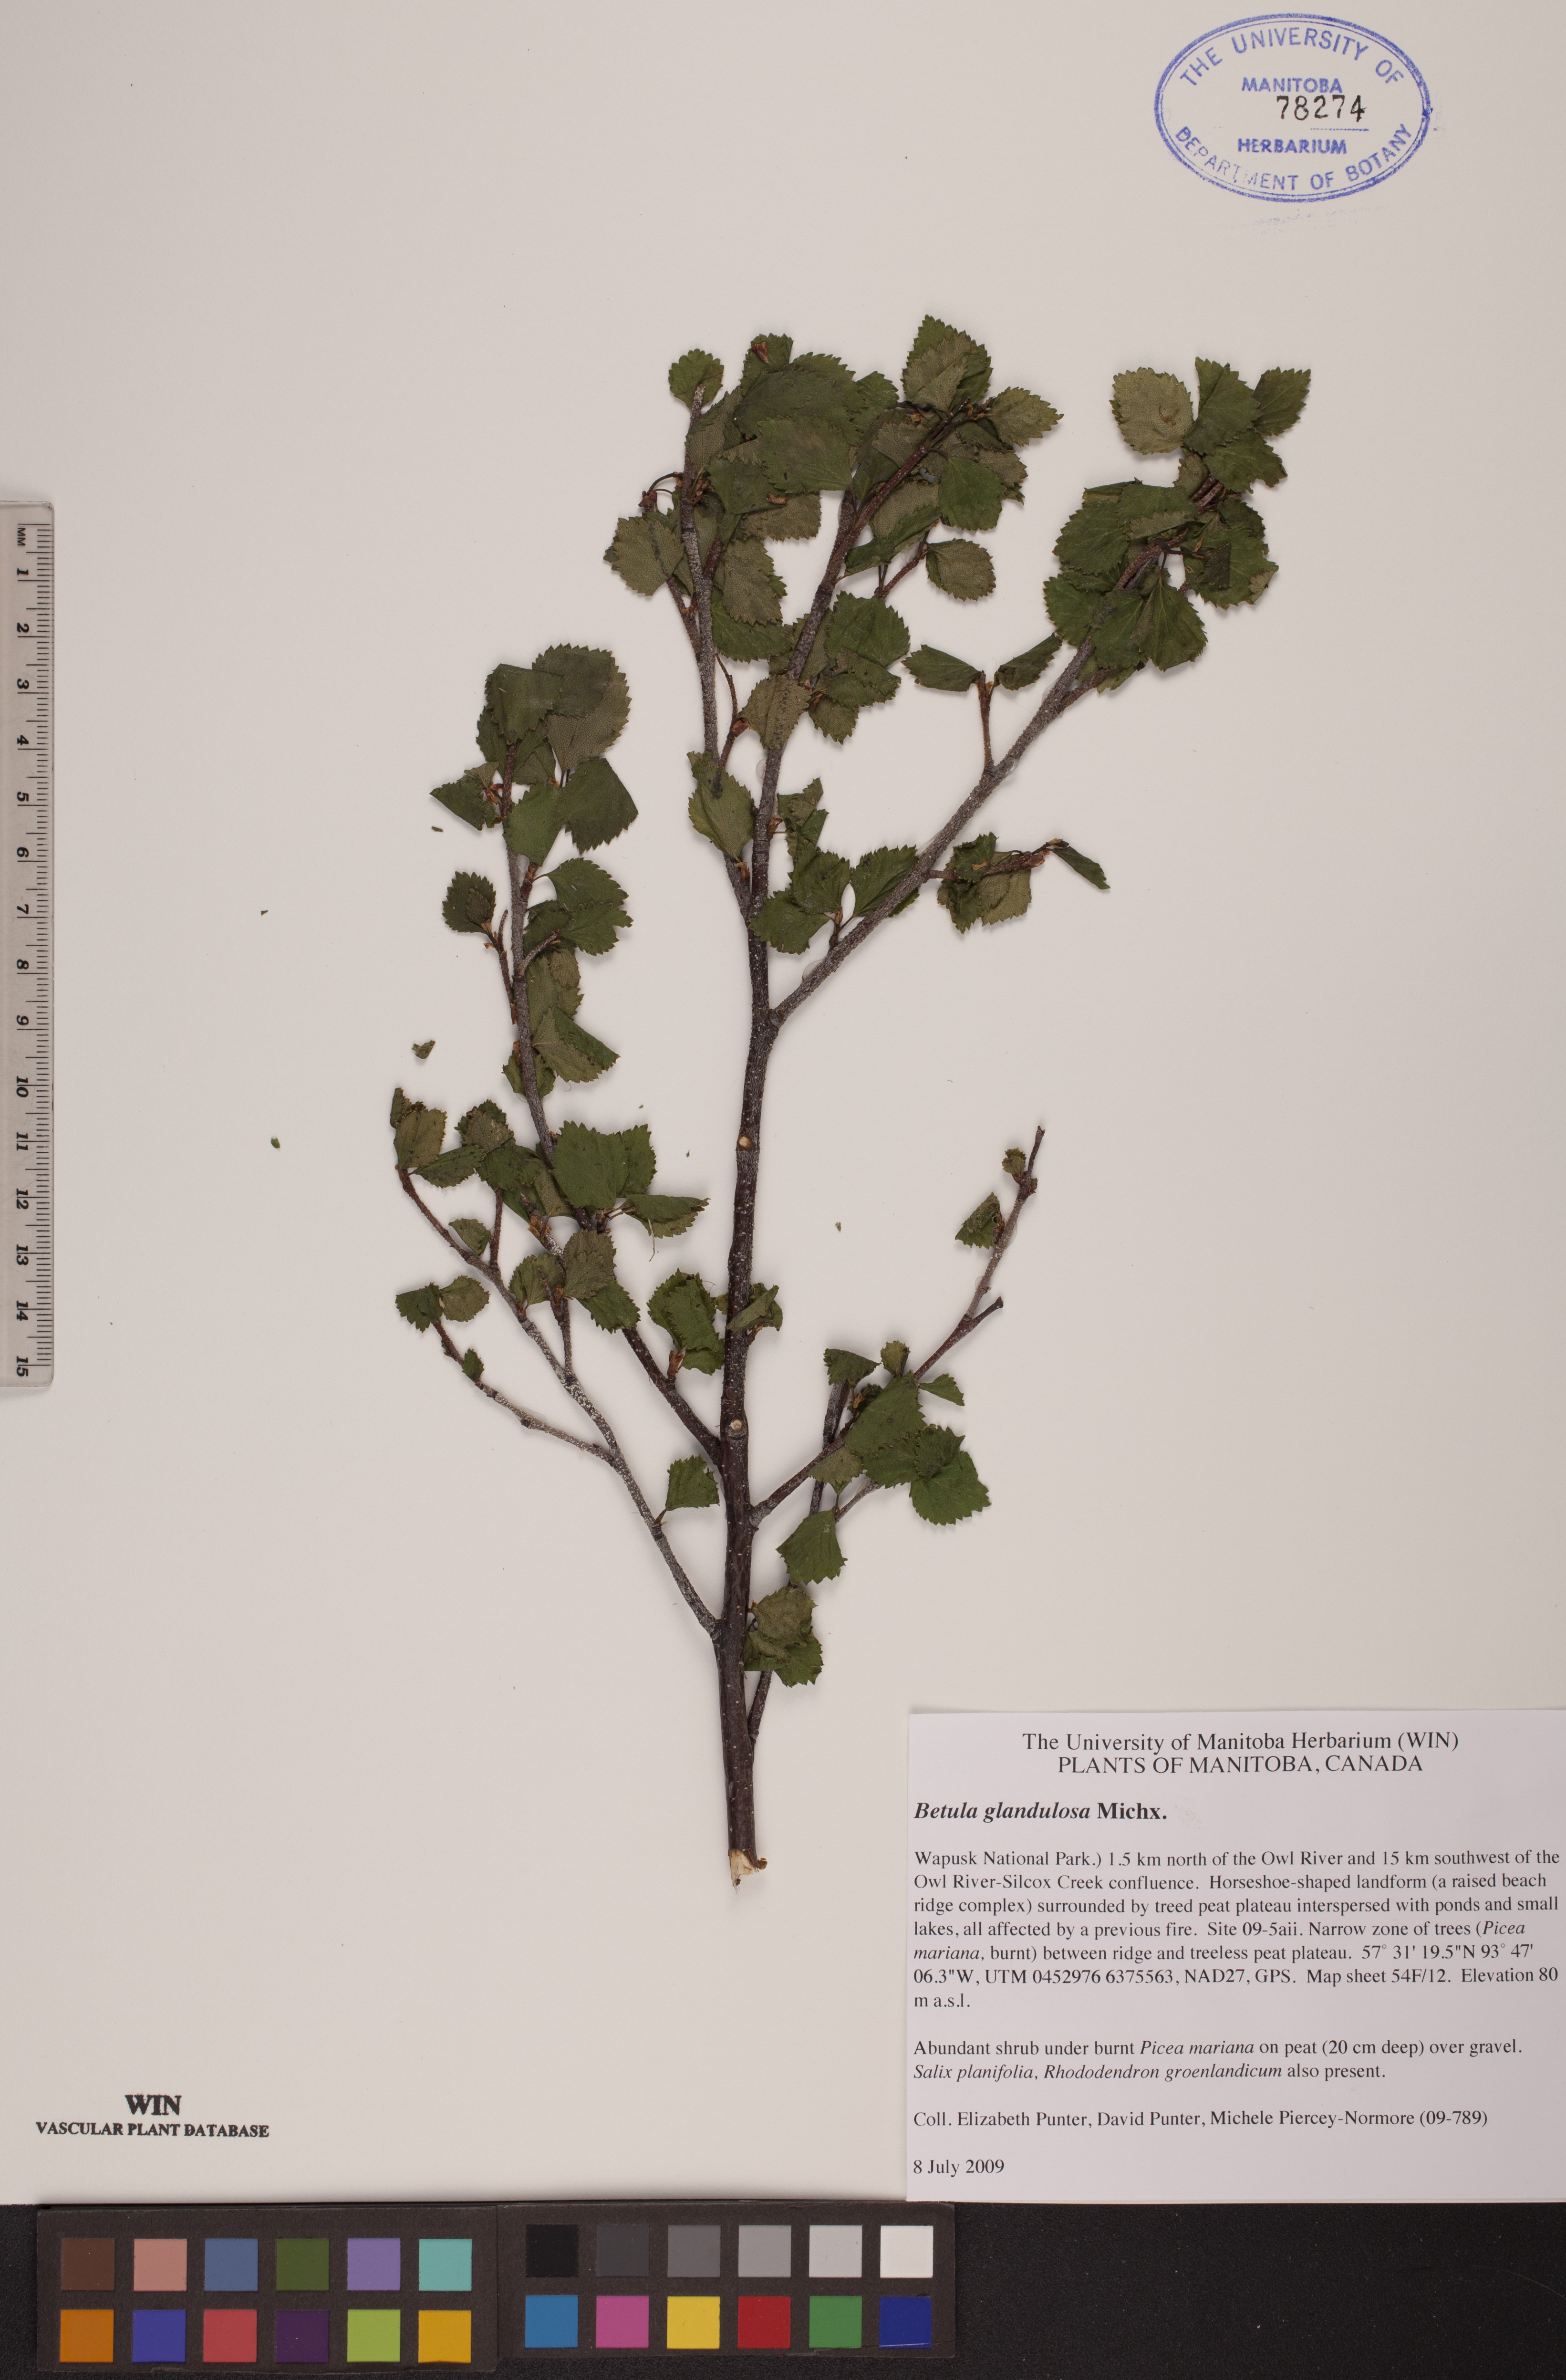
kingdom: Plantae
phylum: Tracheophyta
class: Magnoliopsida
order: Fagales
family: Betulaceae
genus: Betula
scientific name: Betula glandulosa
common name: Dwarf birch
